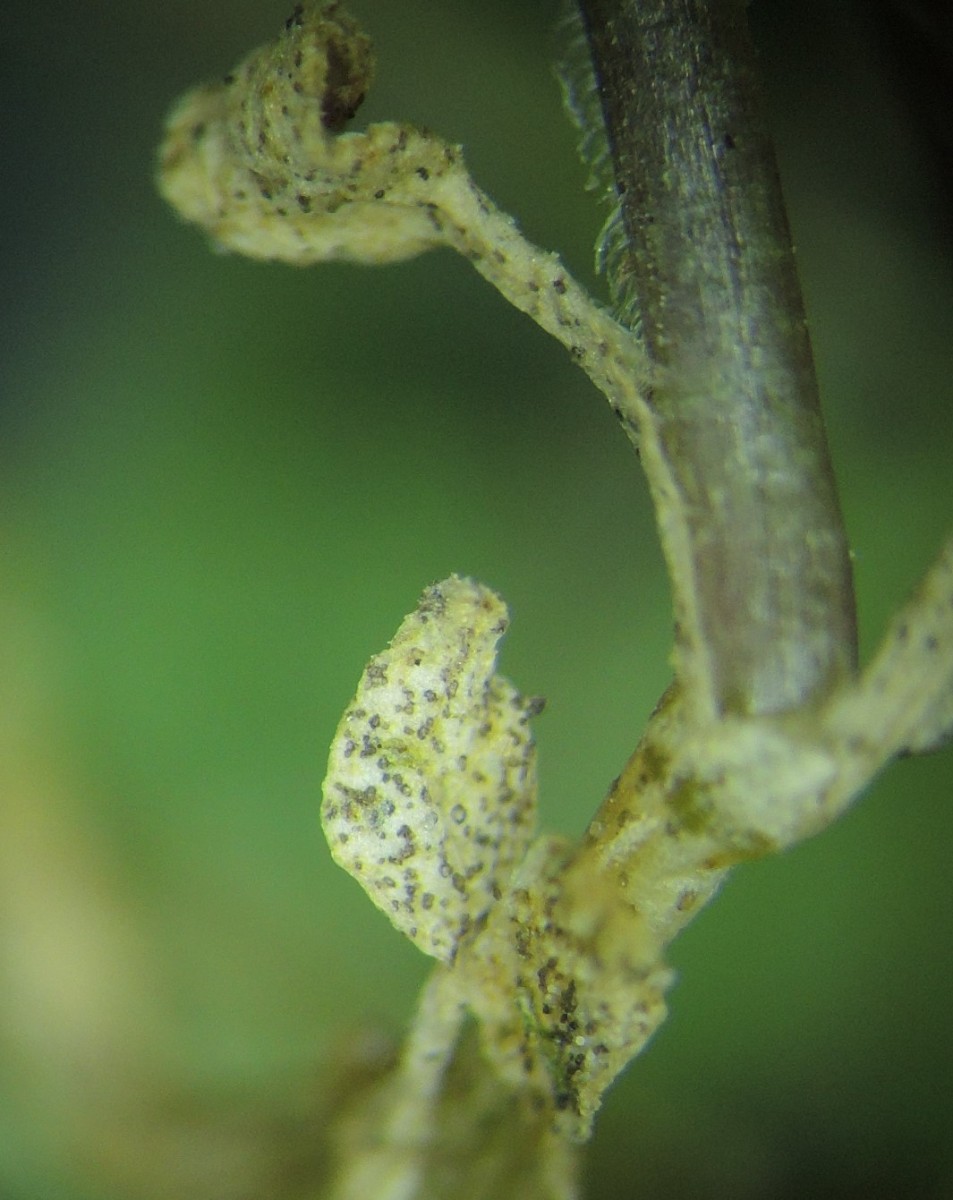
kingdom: Fungi
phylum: Ascomycota
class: Dothideomycetes
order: Mycosphaerellales
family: Mycosphaerellaceae
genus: Septoria
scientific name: Septoria stellariae
